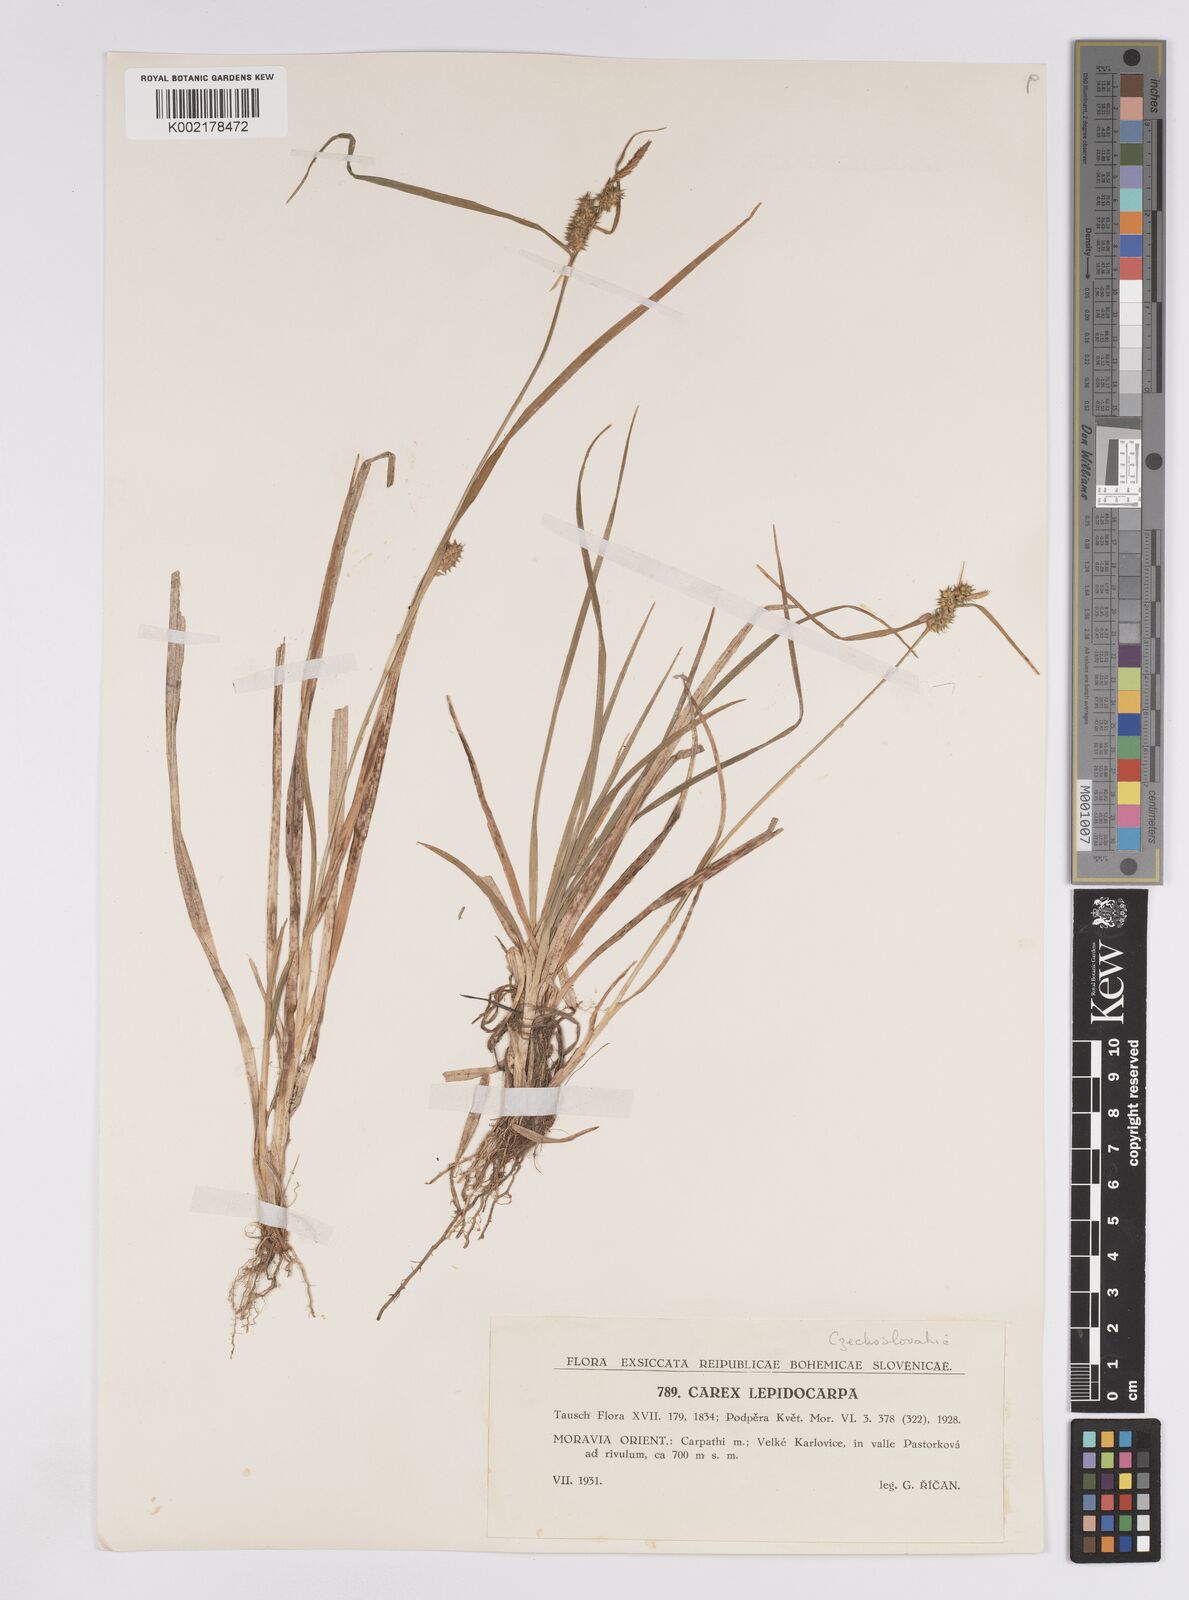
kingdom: Plantae
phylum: Tracheophyta
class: Liliopsida
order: Poales
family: Cyperaceae
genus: Carex
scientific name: Carex demissa
